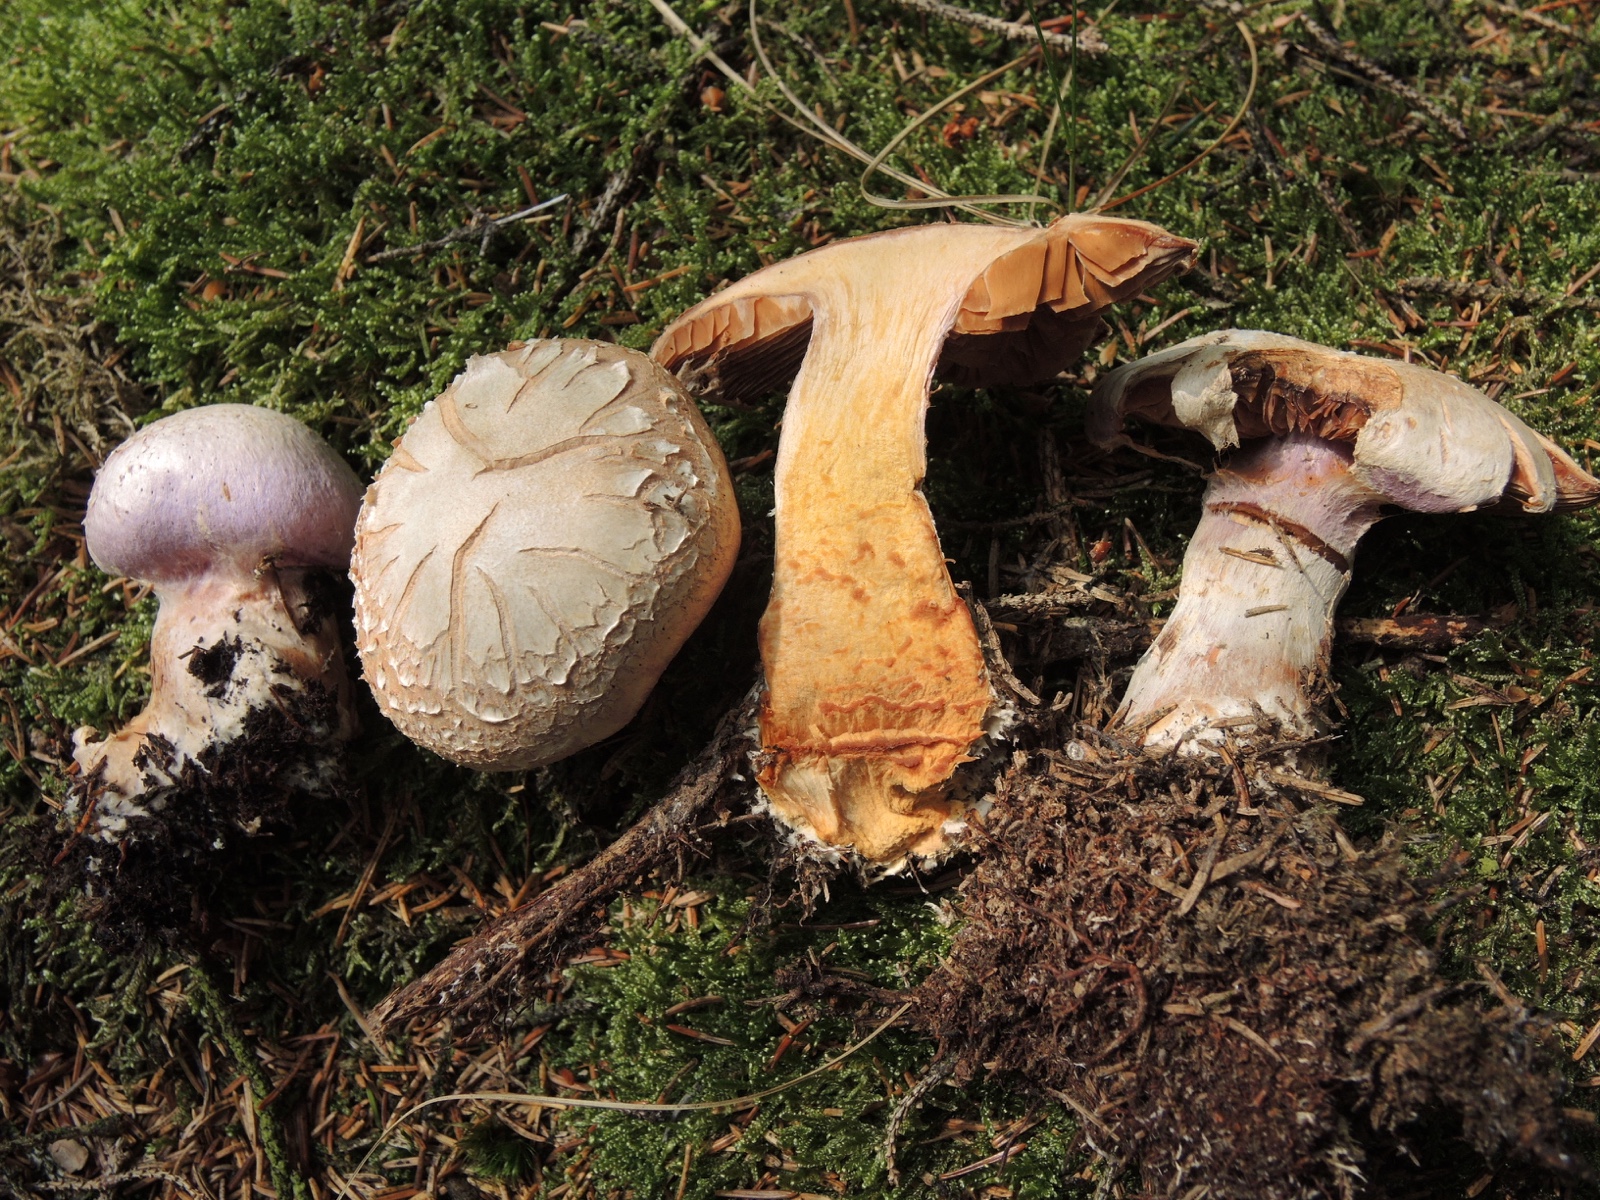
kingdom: Fungi
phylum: Basidiomycota
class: Agaricomycetes
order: Agaricales
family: Cortinariaceae
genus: Cortinarius
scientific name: Cortinarius traganus
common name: safrankødet slørhat
